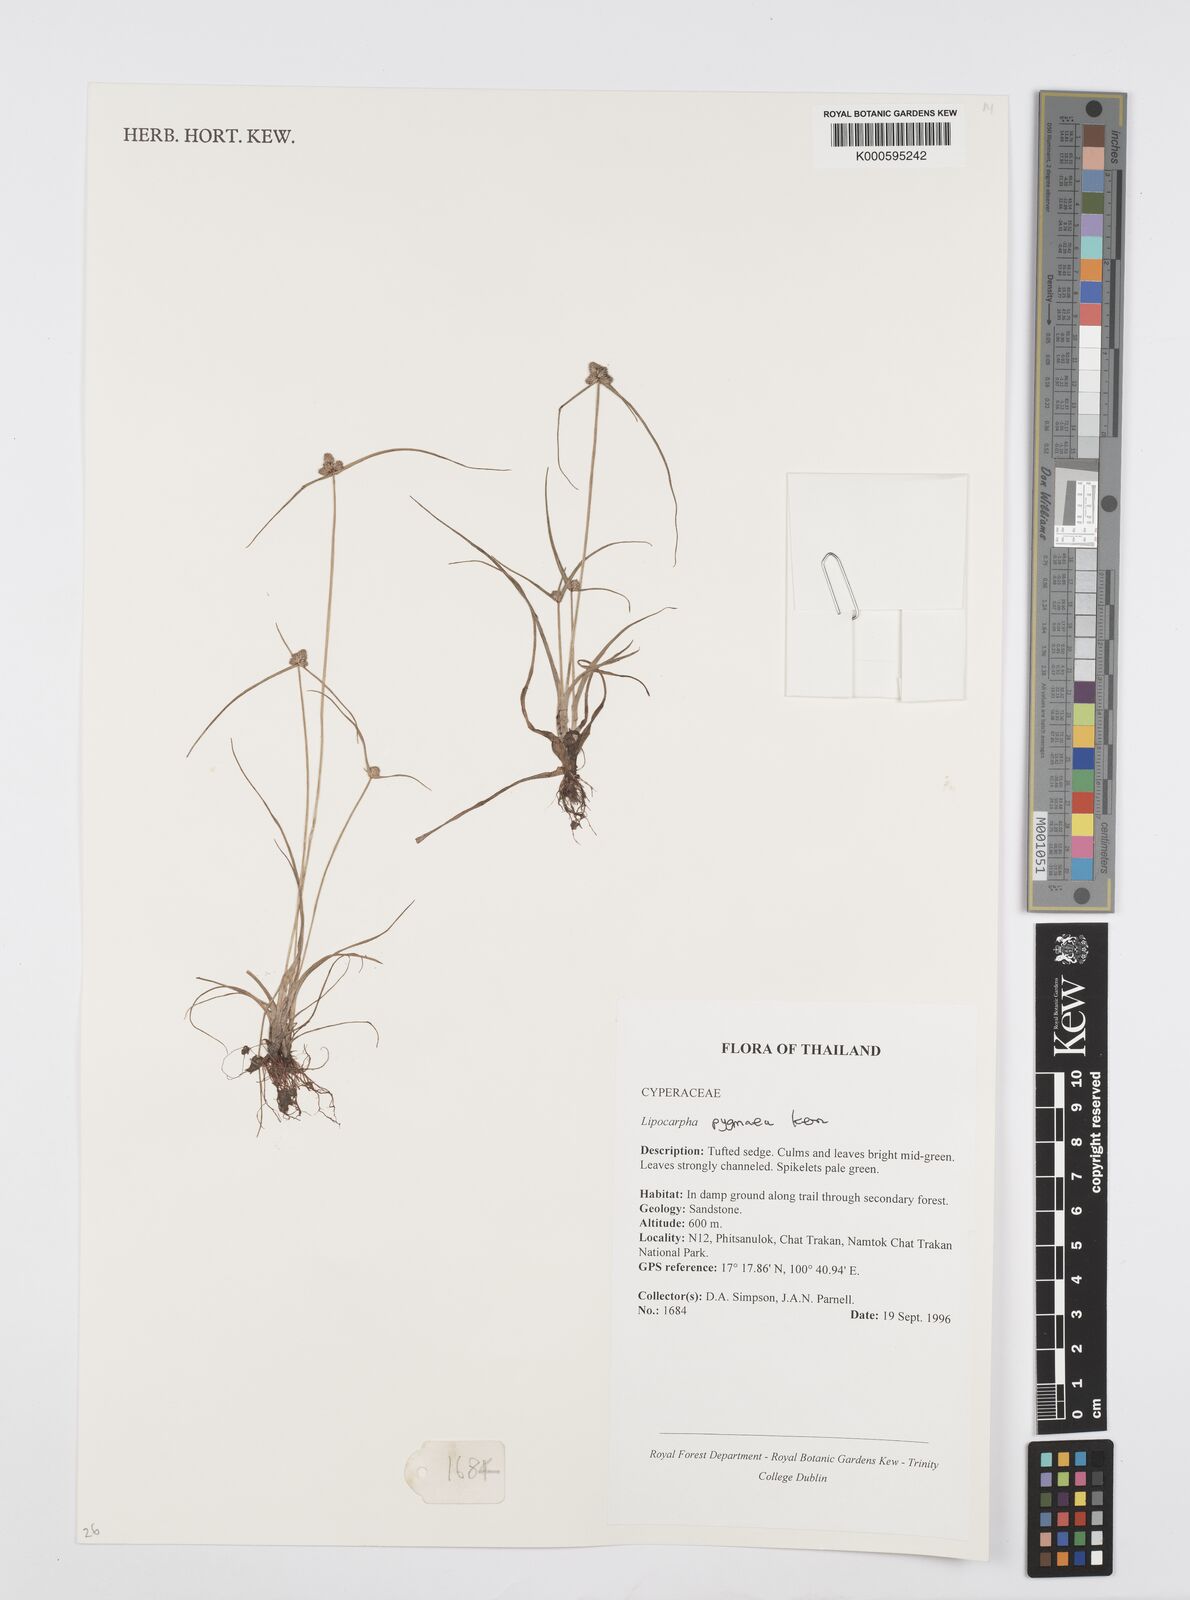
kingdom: Plantae
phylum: Tracheophyta
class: Liliopsida
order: Poales
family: Cyperaceae
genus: Cyperus
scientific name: Cyperus lipopygmaeus
